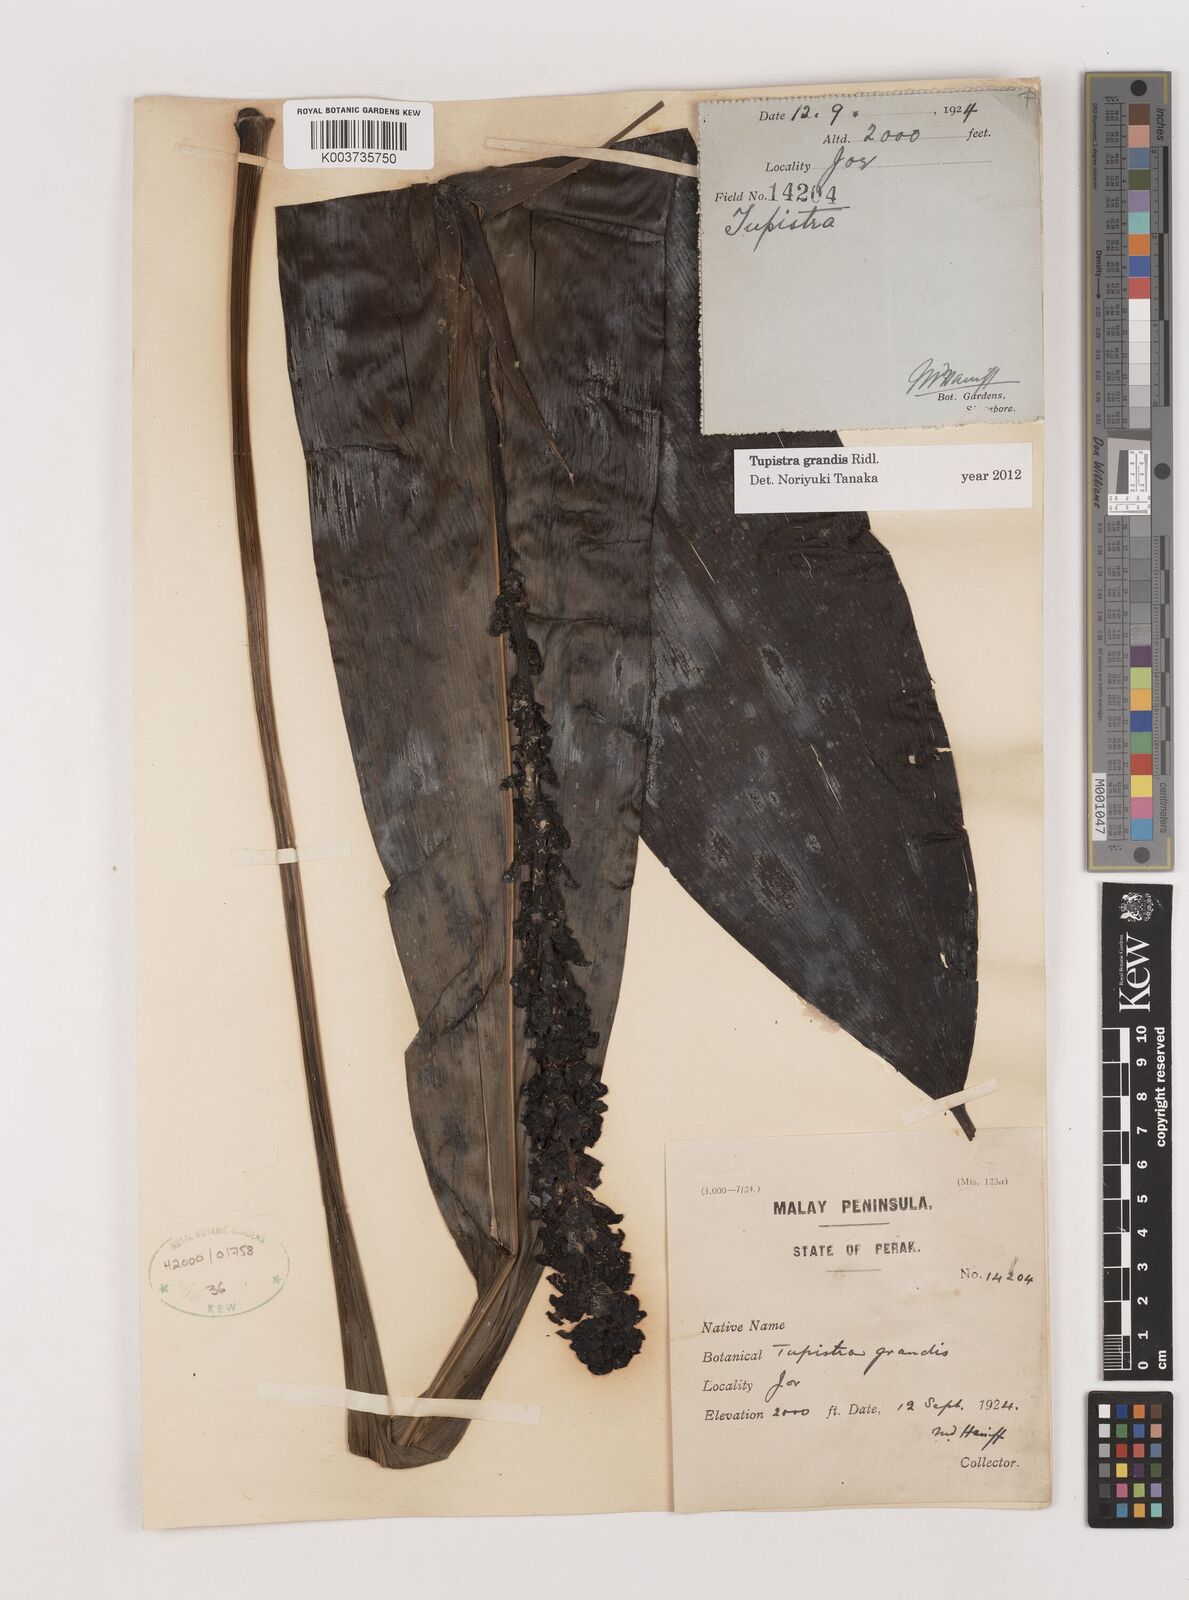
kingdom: Plantae
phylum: Tracheophyta
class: Liliopsida
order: Asparagales
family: Asparagaceae
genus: Tupistra
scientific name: Tupistra grandis
